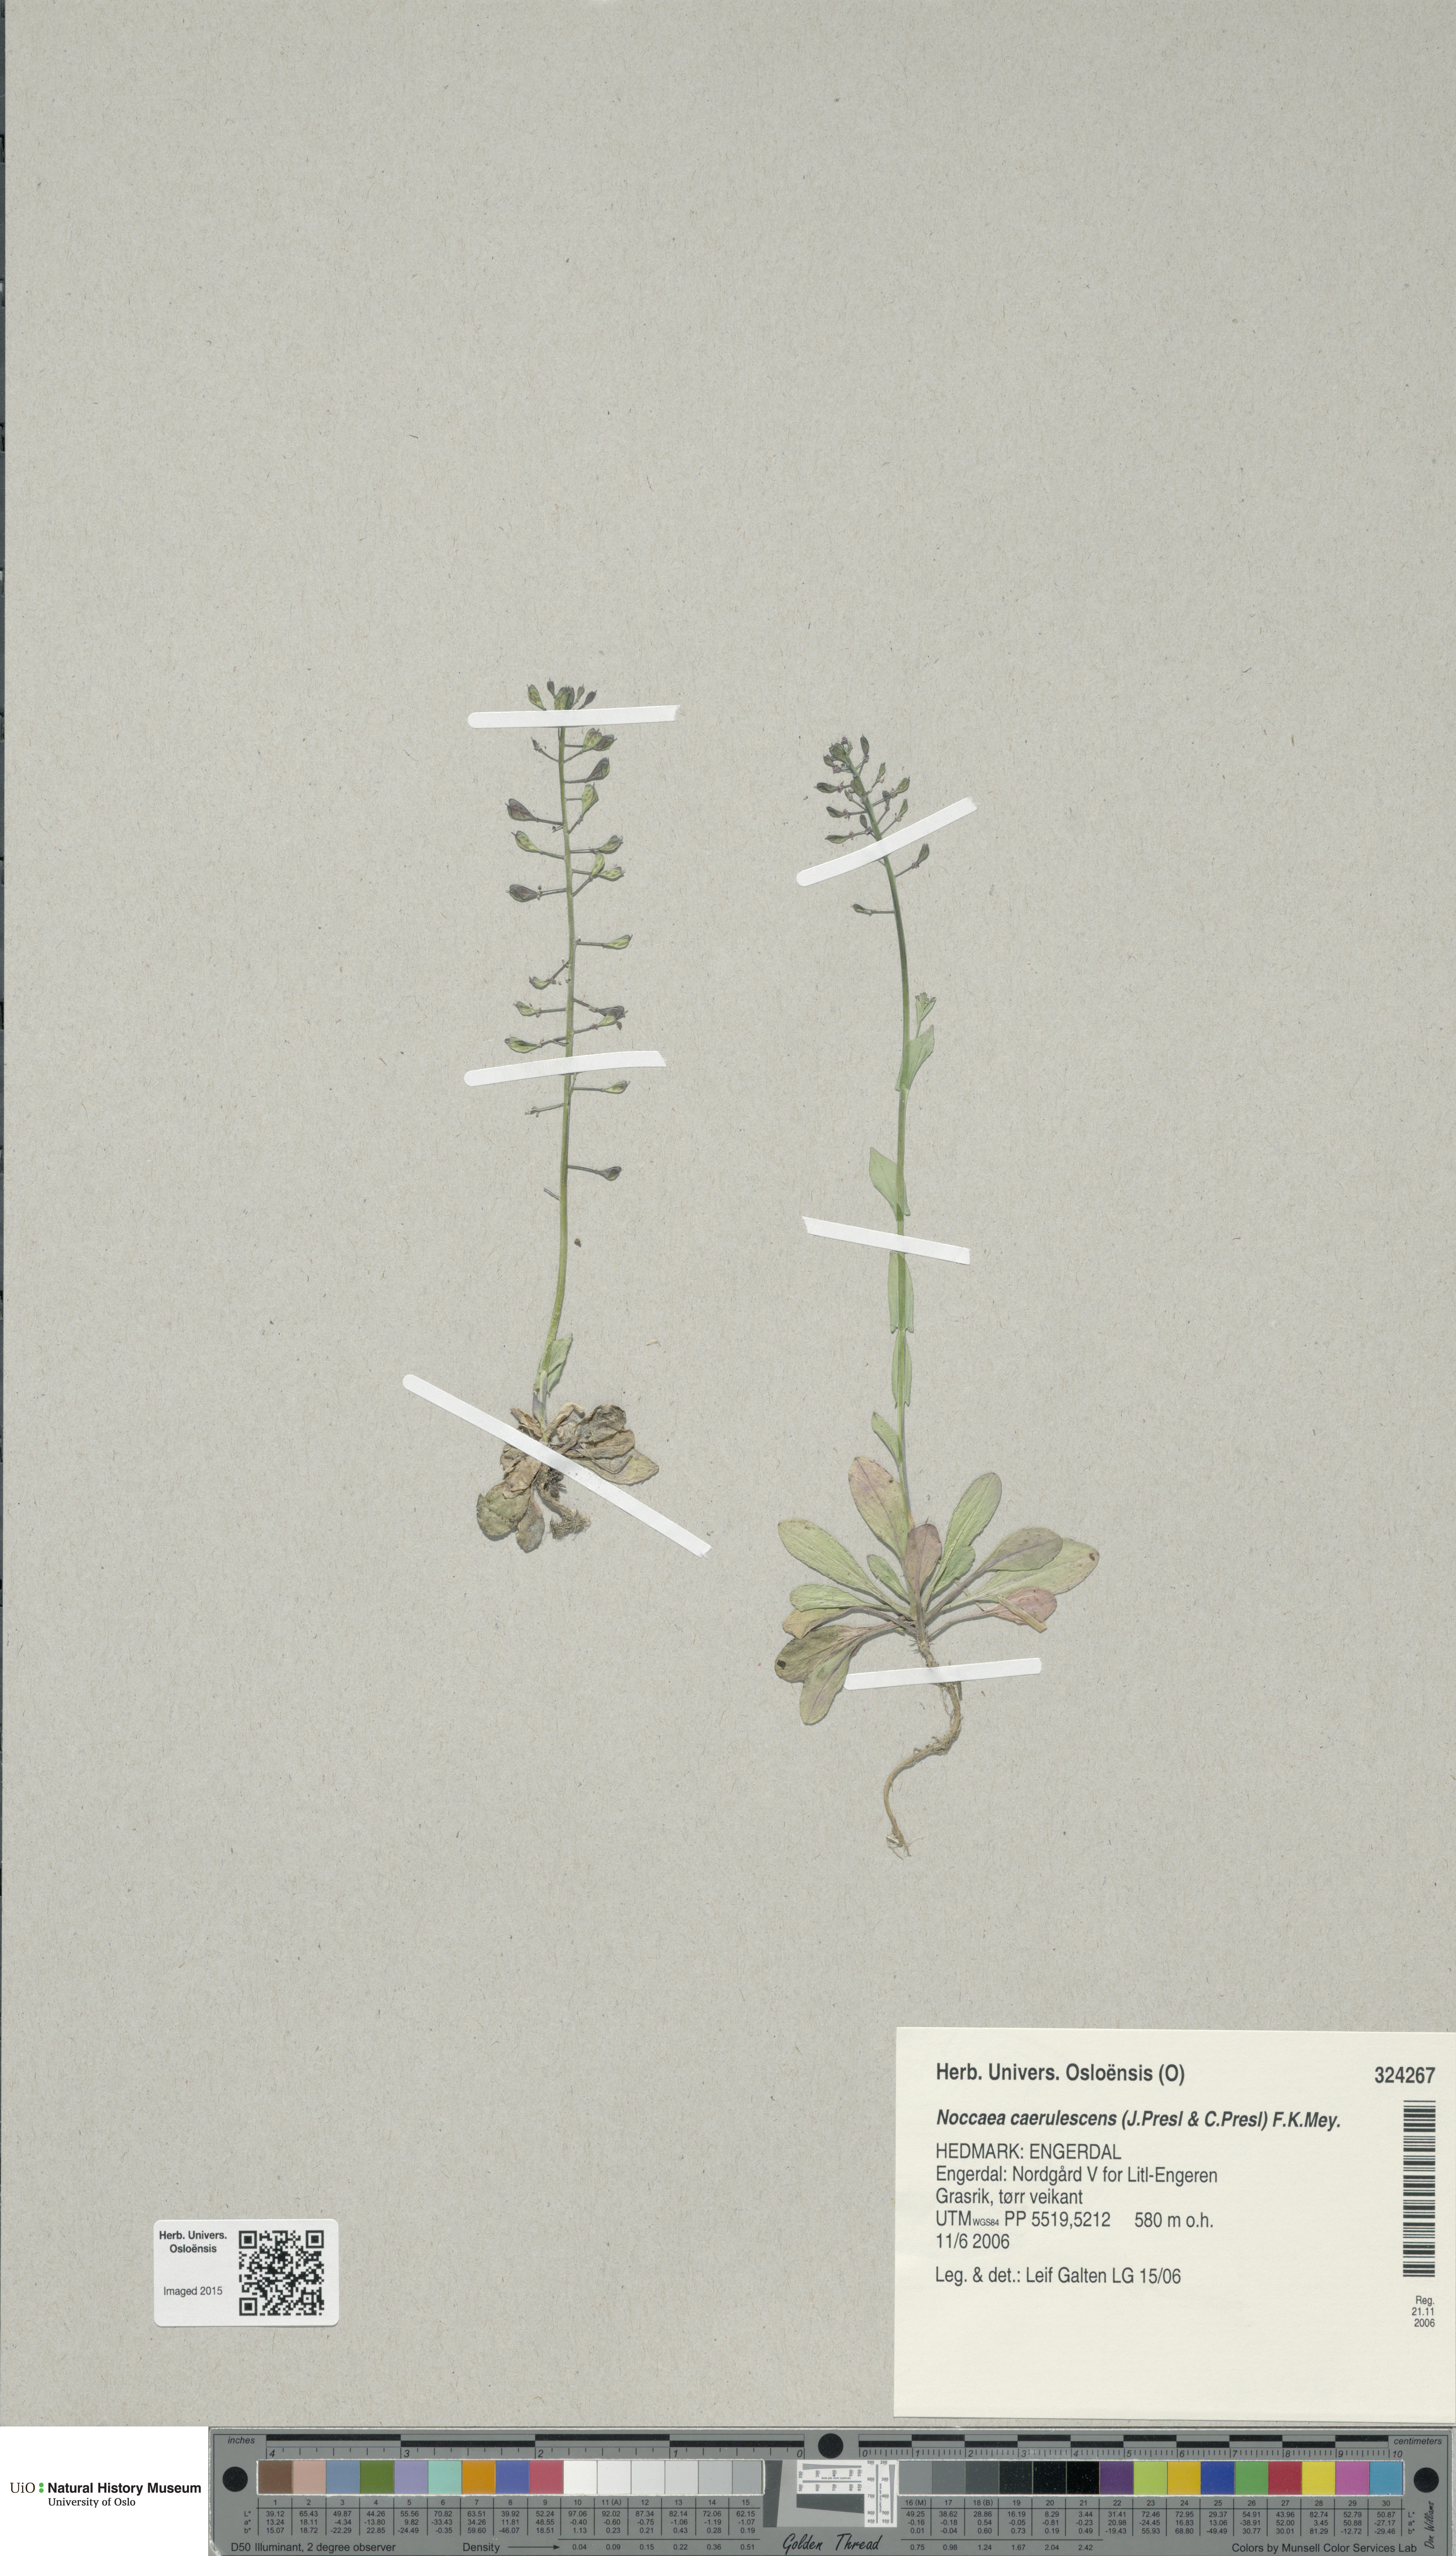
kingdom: Plantae
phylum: Tracheophyta
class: Magnoliopsida
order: Brassicales
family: Brassicaceae
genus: Noccaea
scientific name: Noccaea caerulescens
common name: Alpine pennycress
